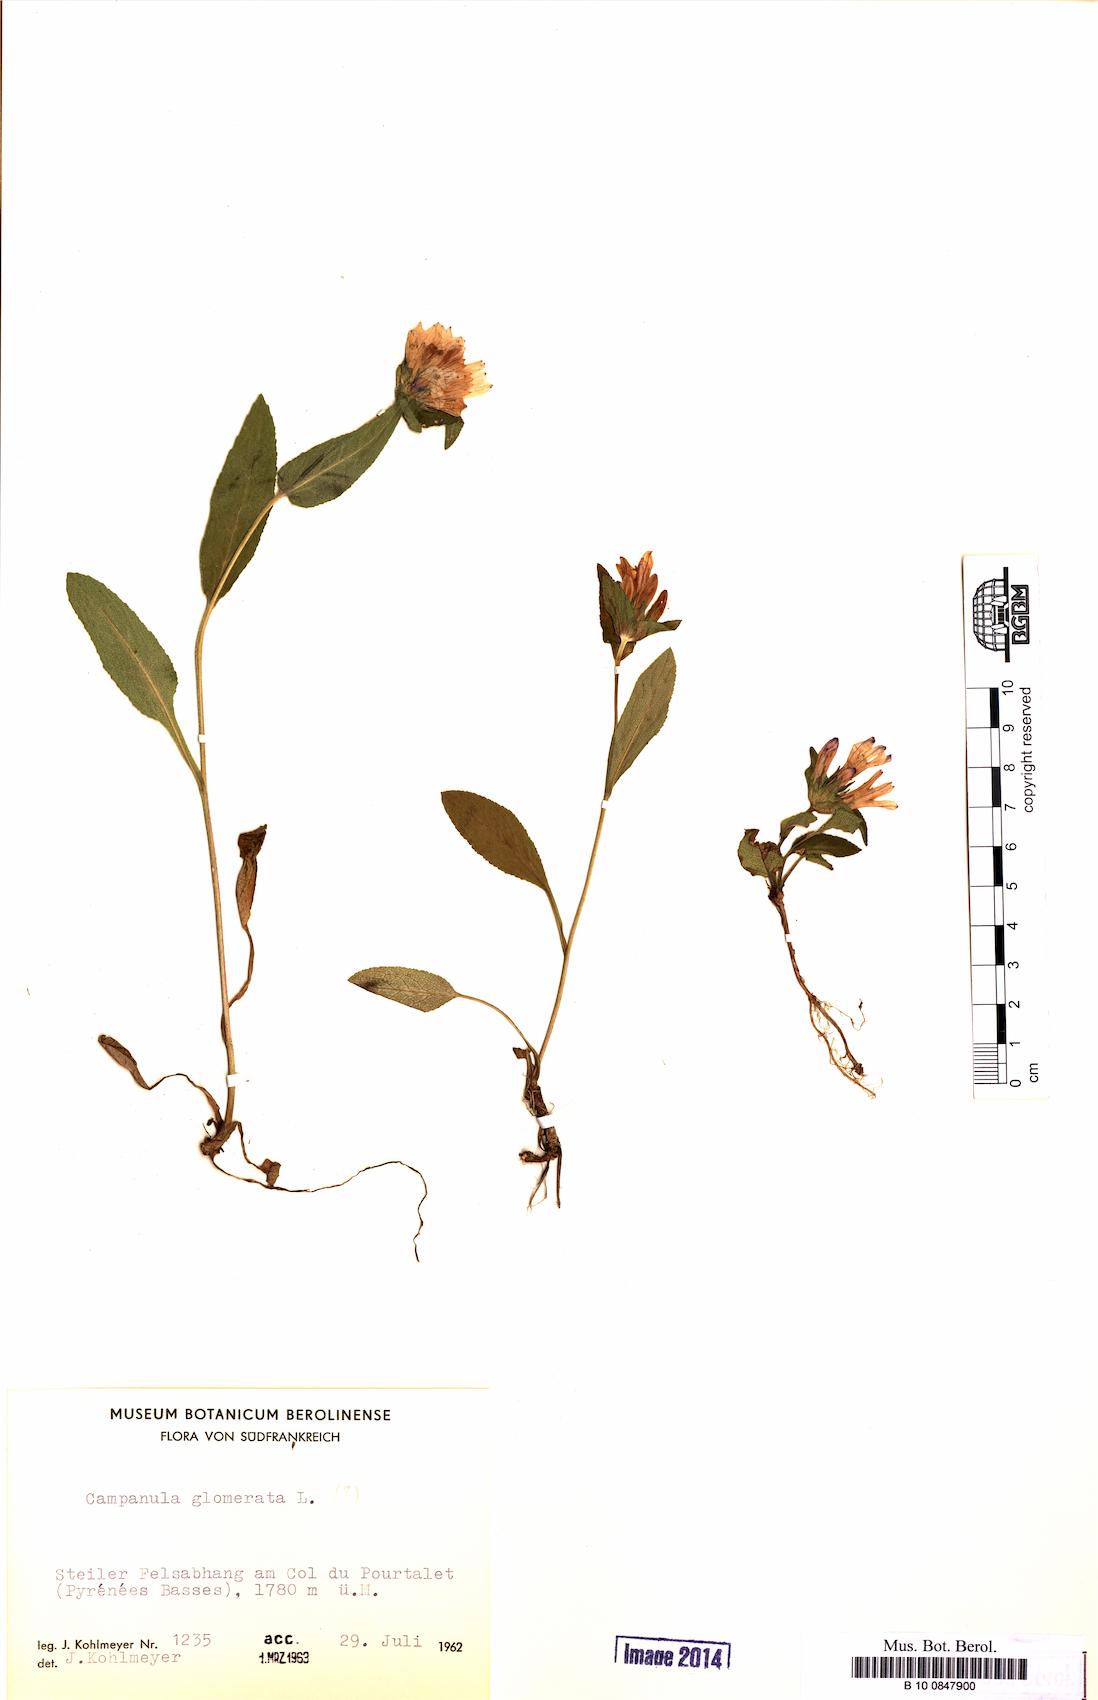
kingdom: Plantae
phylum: Tracheophyta
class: Magnoliopsida
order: Asterales
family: Campanulaceae
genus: Campanula
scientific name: Campanula glomerata
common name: Clustered bellflower
